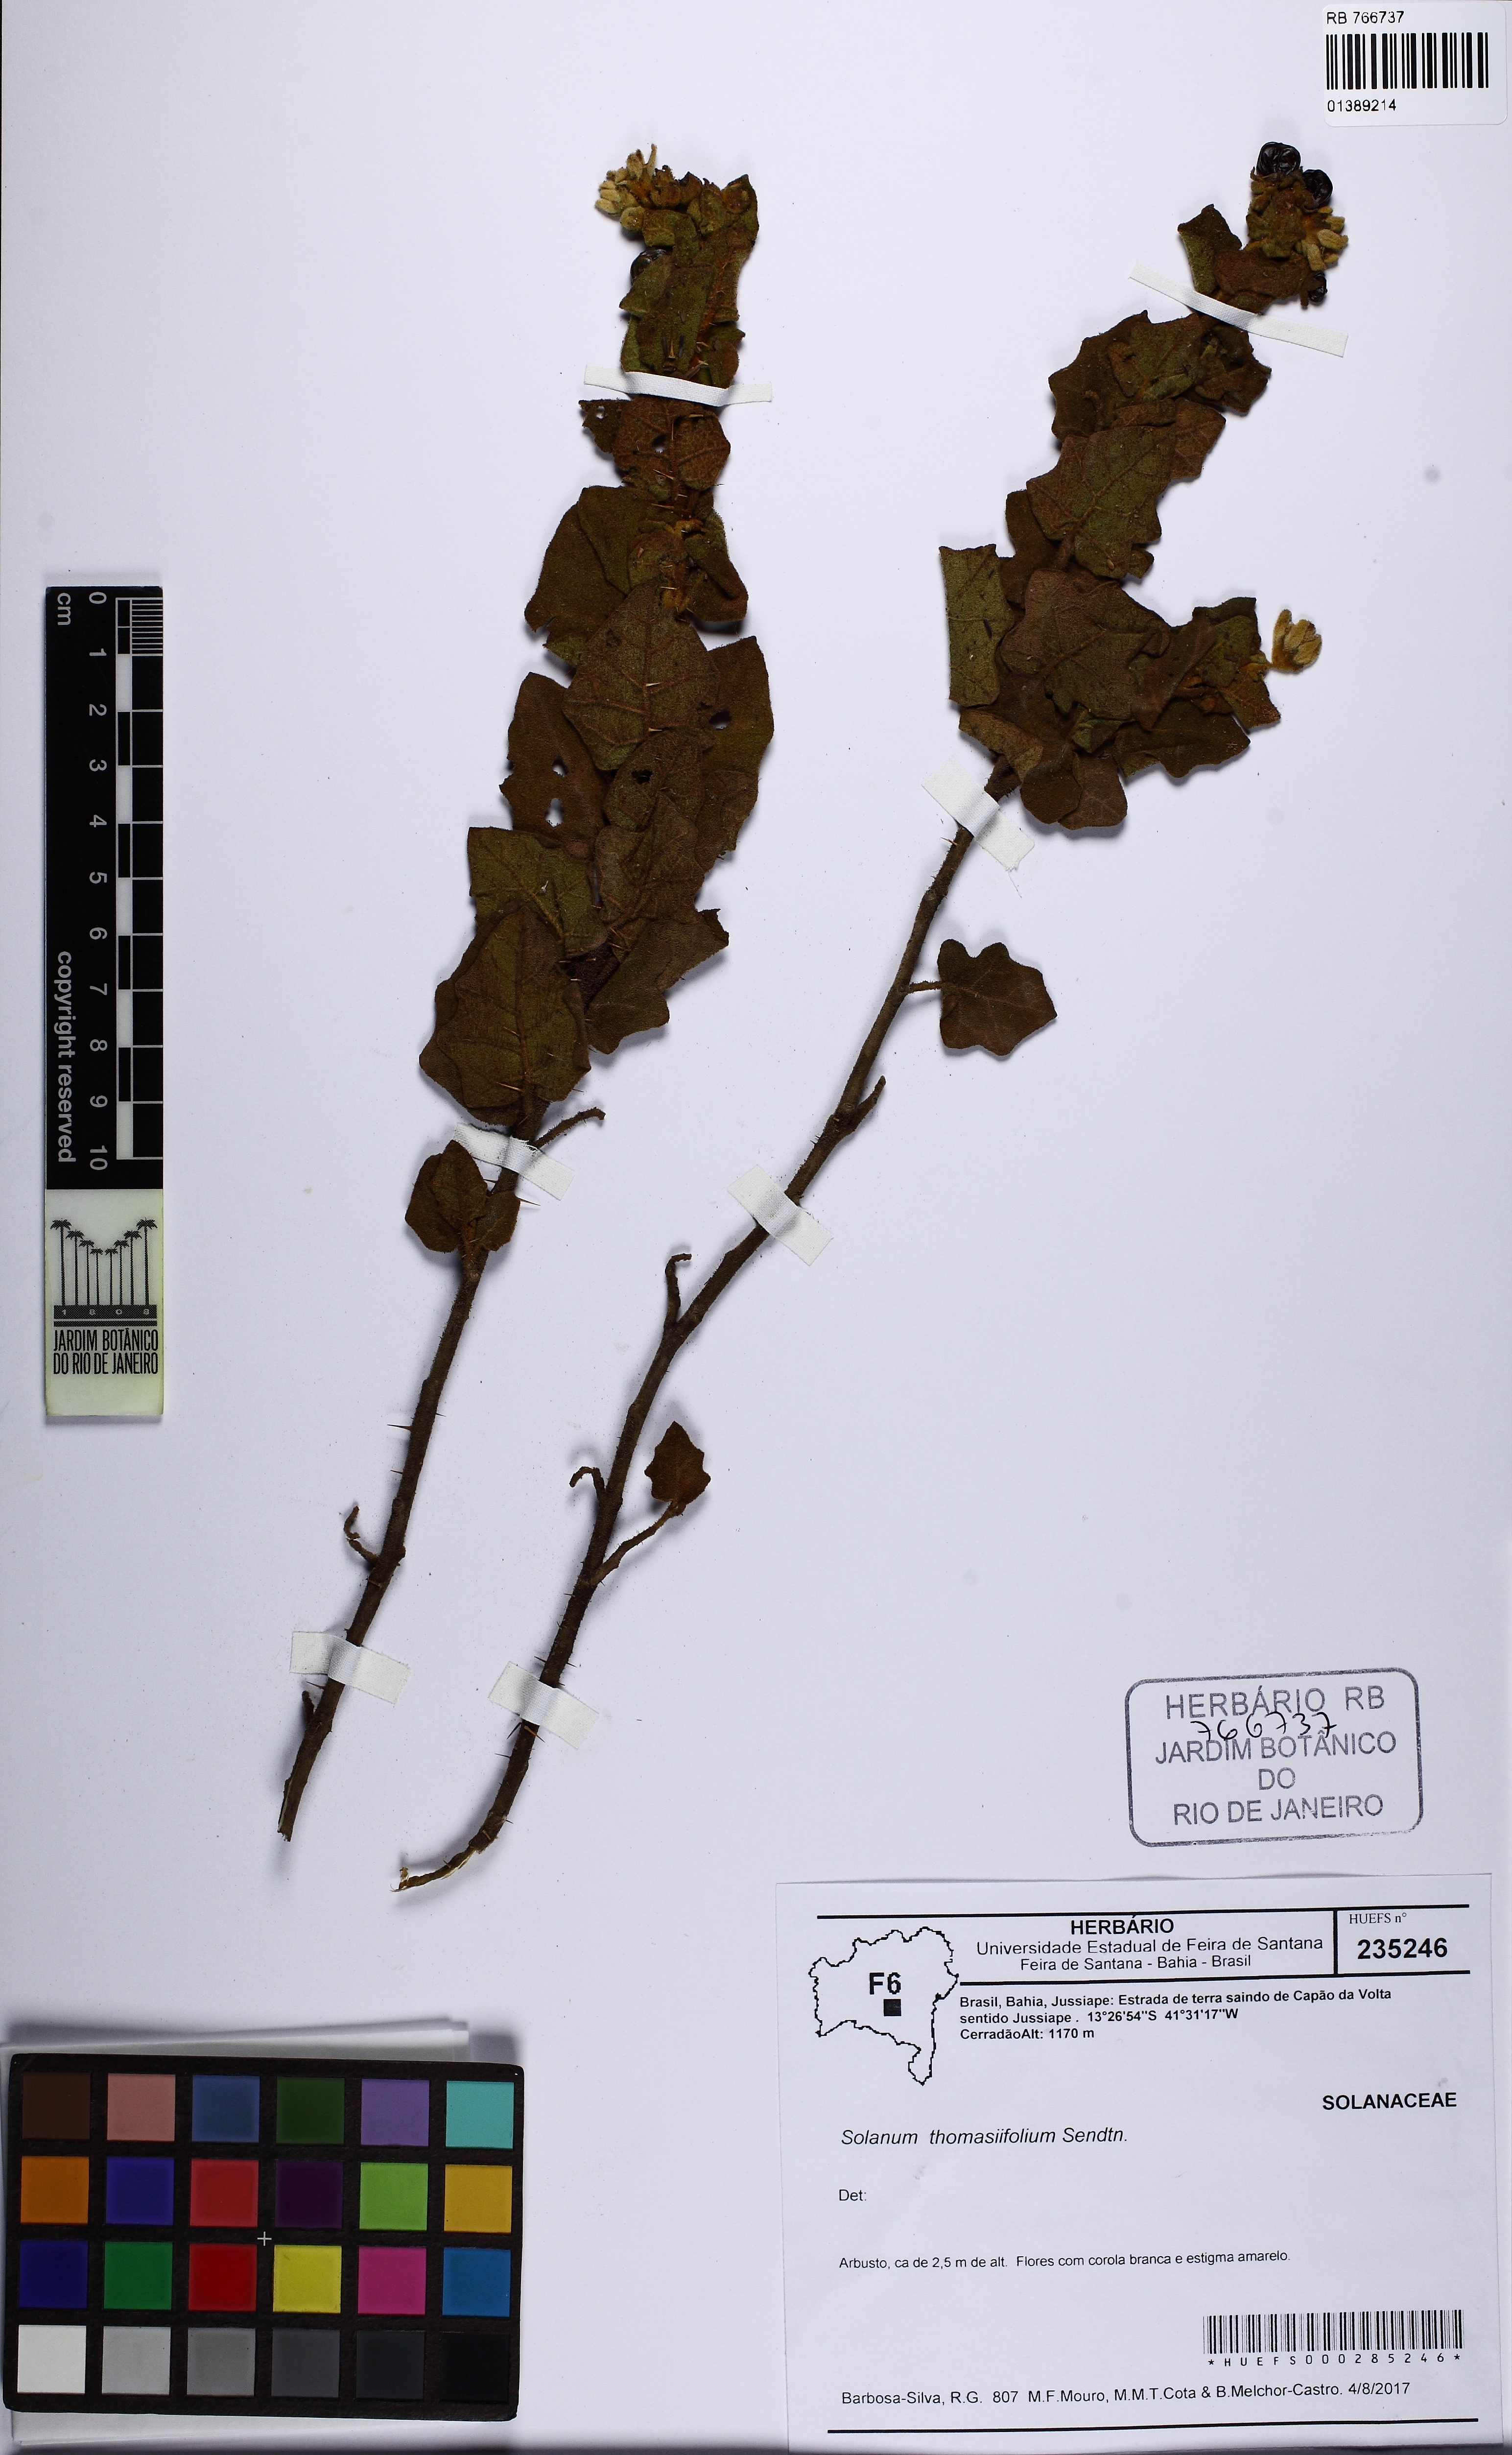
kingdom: Plantae
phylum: Tracheophyta
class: Magnoliopsida
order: Solanales
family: Solanaceae
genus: Solanum
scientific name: Solanum thomasiifolium
